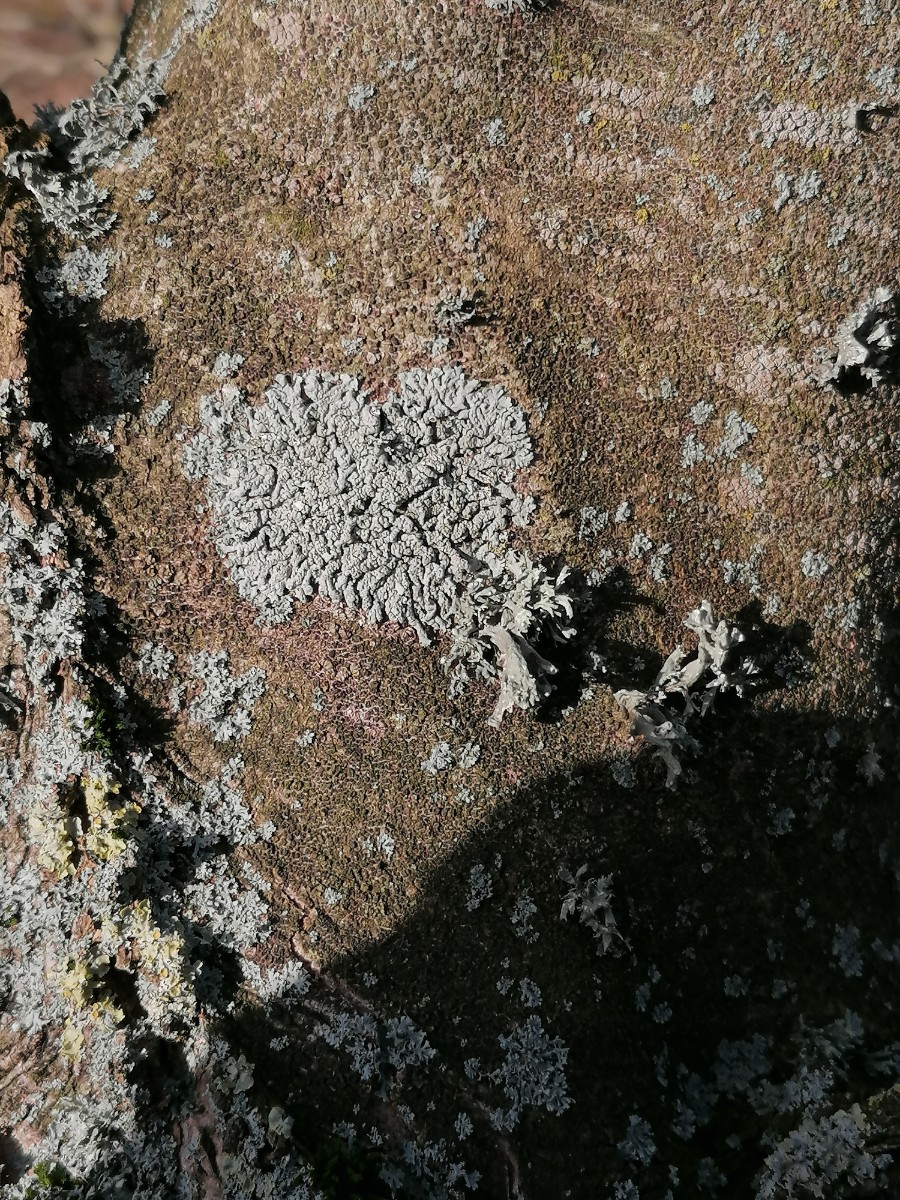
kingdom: Fungi
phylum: Ascomycota
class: Lecanoromycetes
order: Caliciales
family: Physciaceae
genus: Physcia
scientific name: Physcia stellaris
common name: stjerneformet rosetlav
